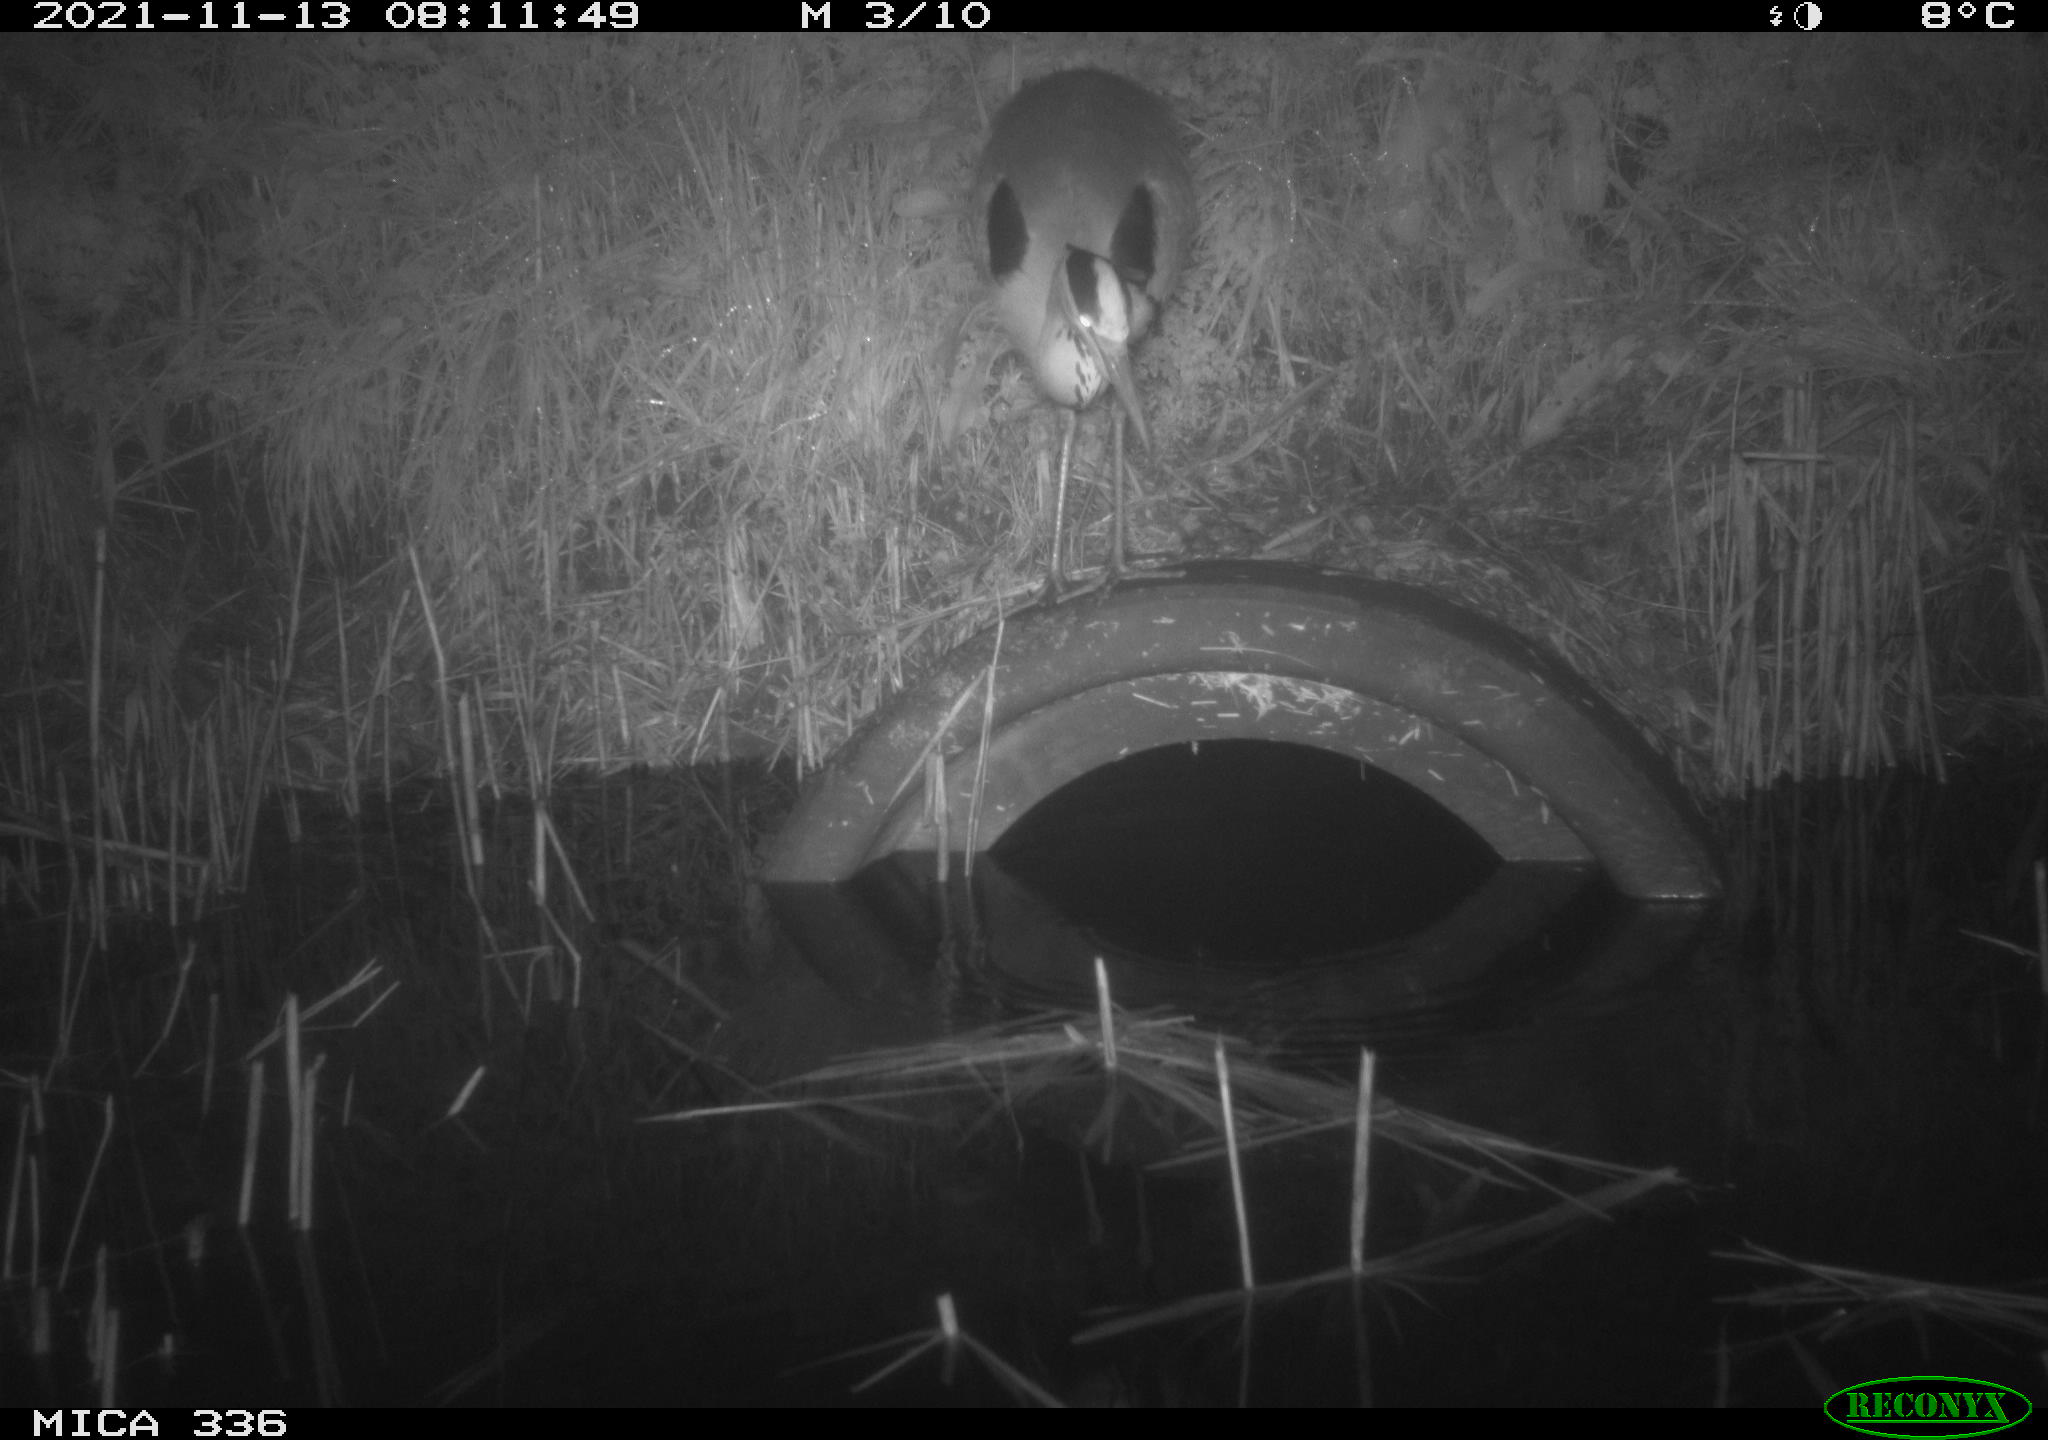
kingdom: Animalia
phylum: Chordata
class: Aves
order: Pelecaniformes
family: Ardeidae
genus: Ardea
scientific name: Ardea cinerea
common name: Grey heron
